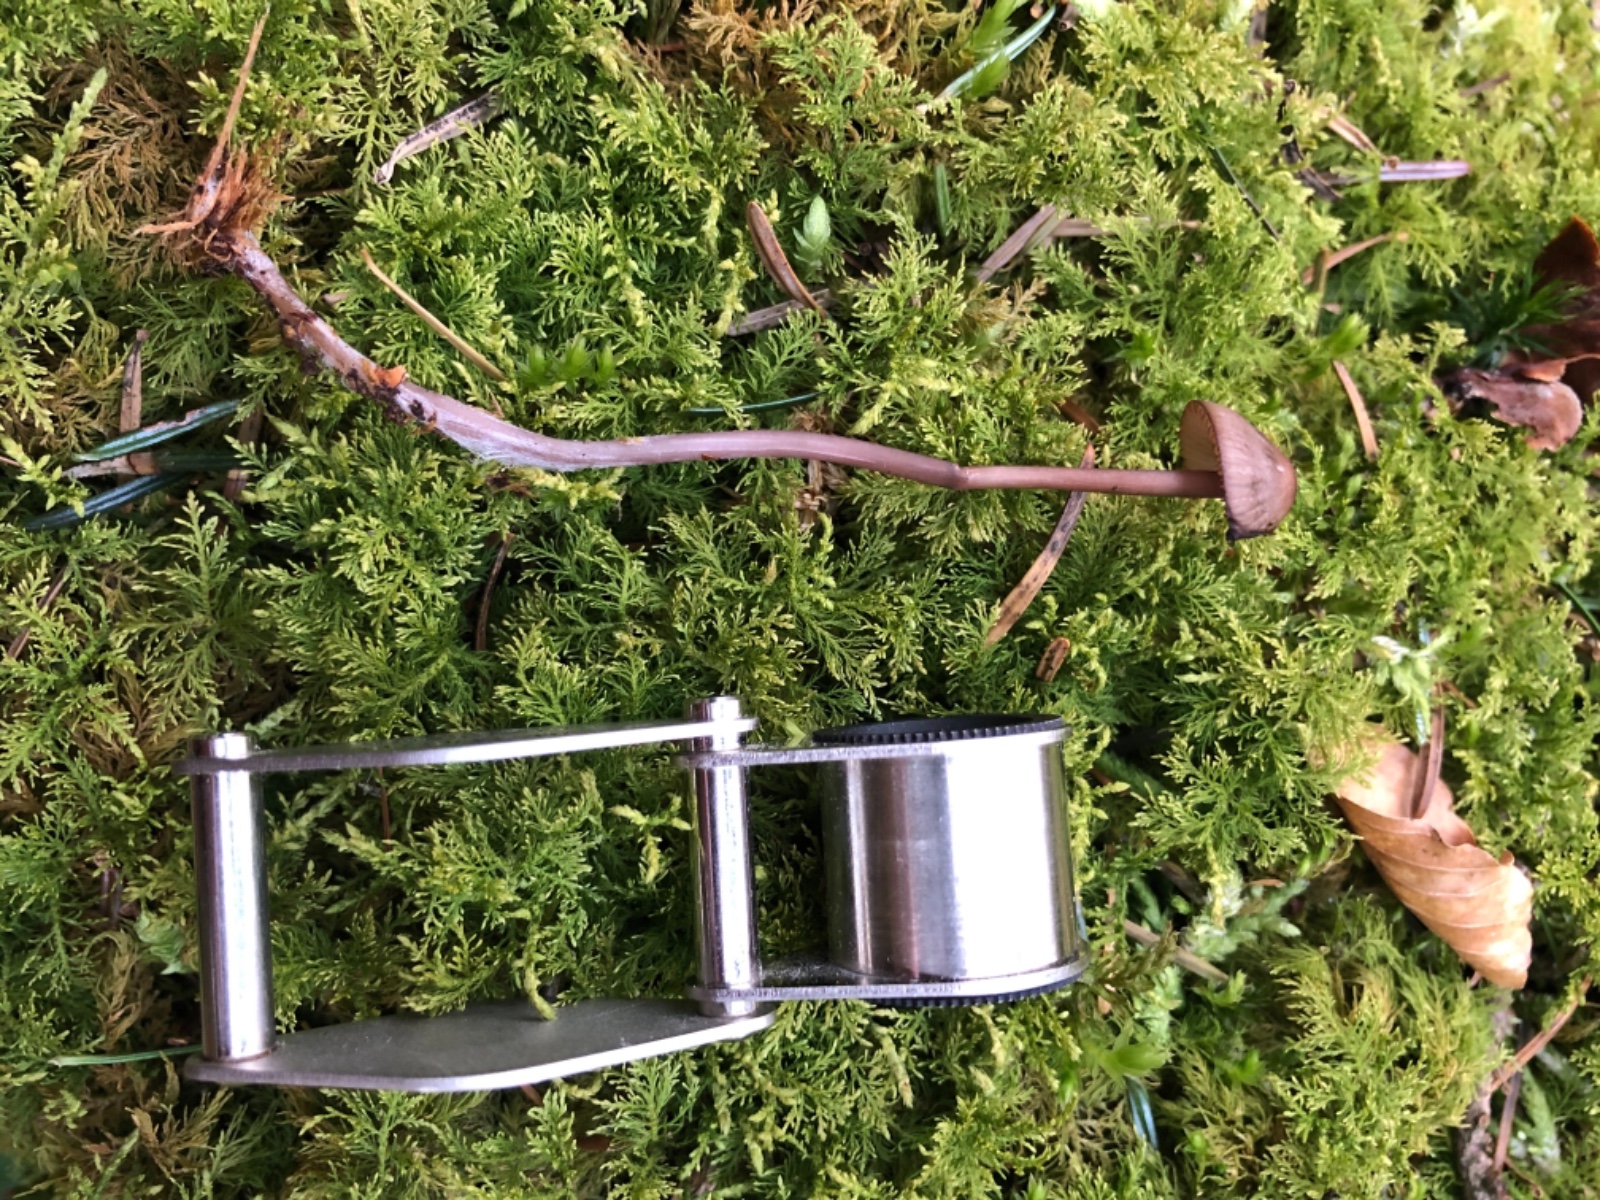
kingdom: Fungi
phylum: Basidiomycota
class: Agaricomycetes
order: Agaricales
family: Mycenaceae
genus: Mycena
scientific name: Mycena purpureofusca
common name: purpur-huesvamp
